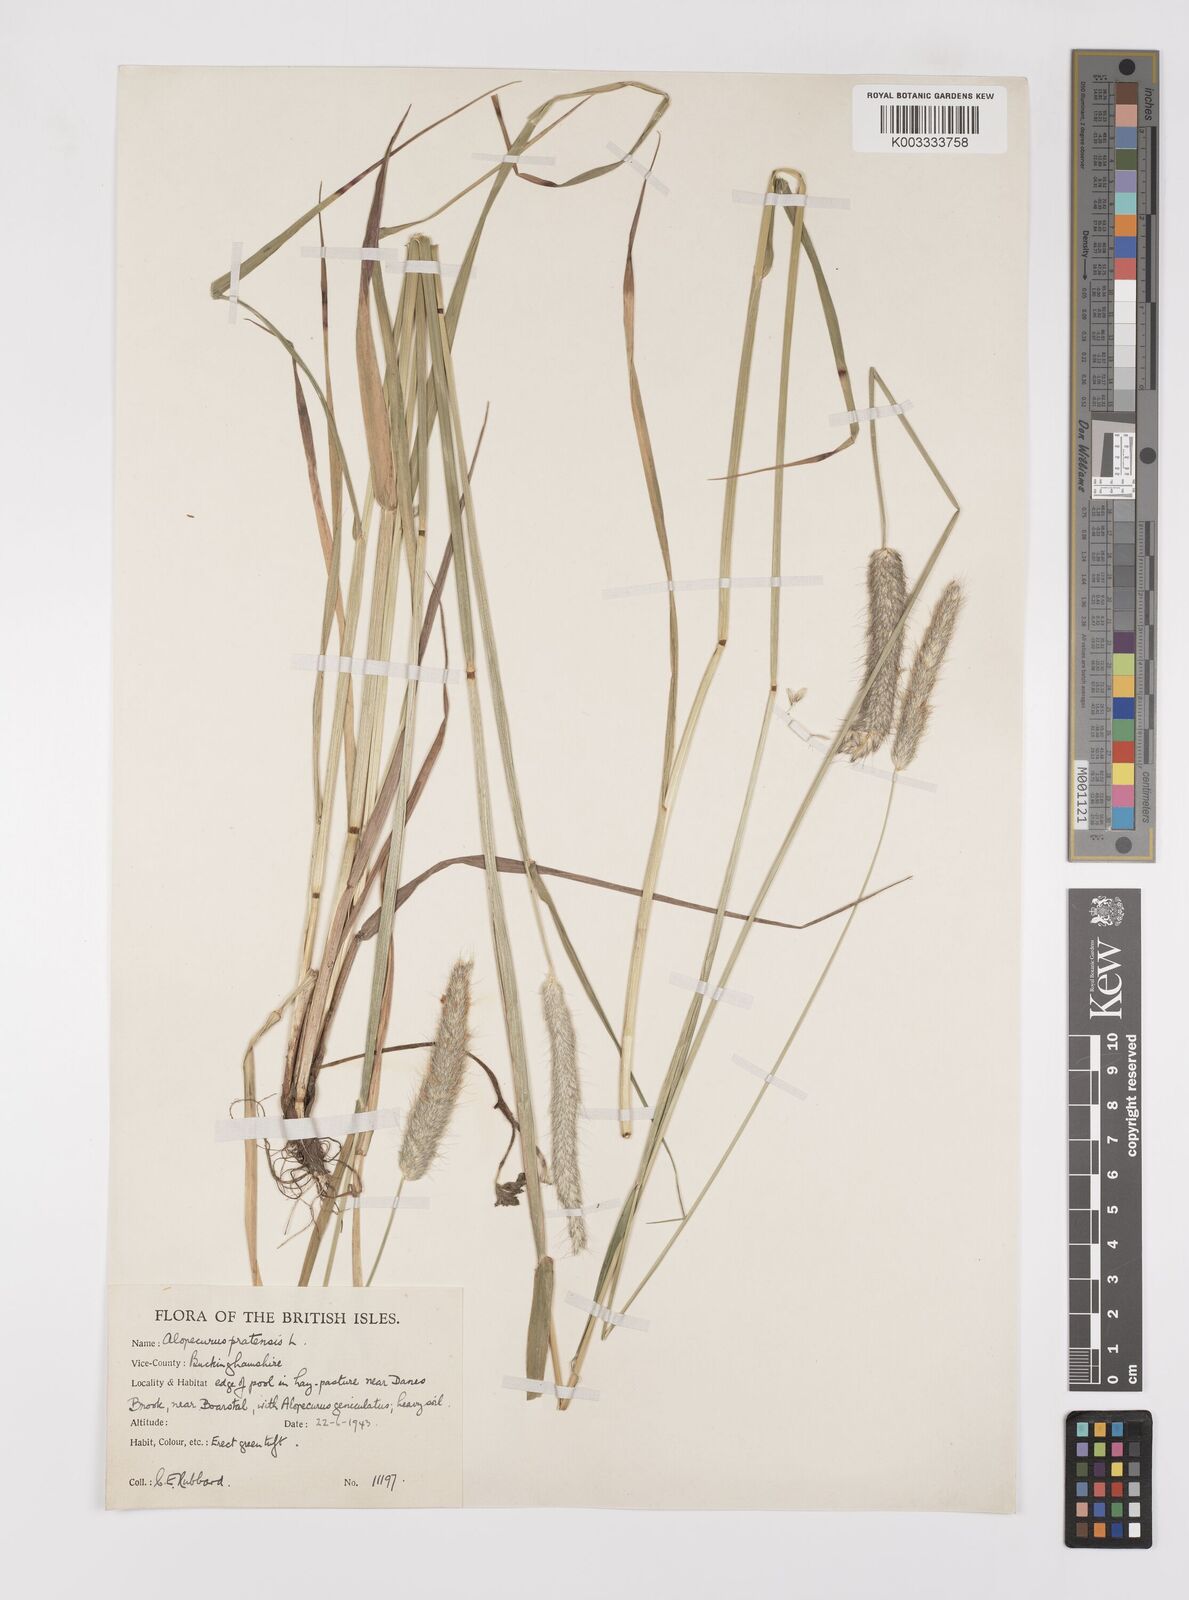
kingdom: Plantae
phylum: Tracheophyta
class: Liliopsida
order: Poales
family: Poaceae
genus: Alopecurus
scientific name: Alopecurus pratensis
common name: Meadow foxtail
